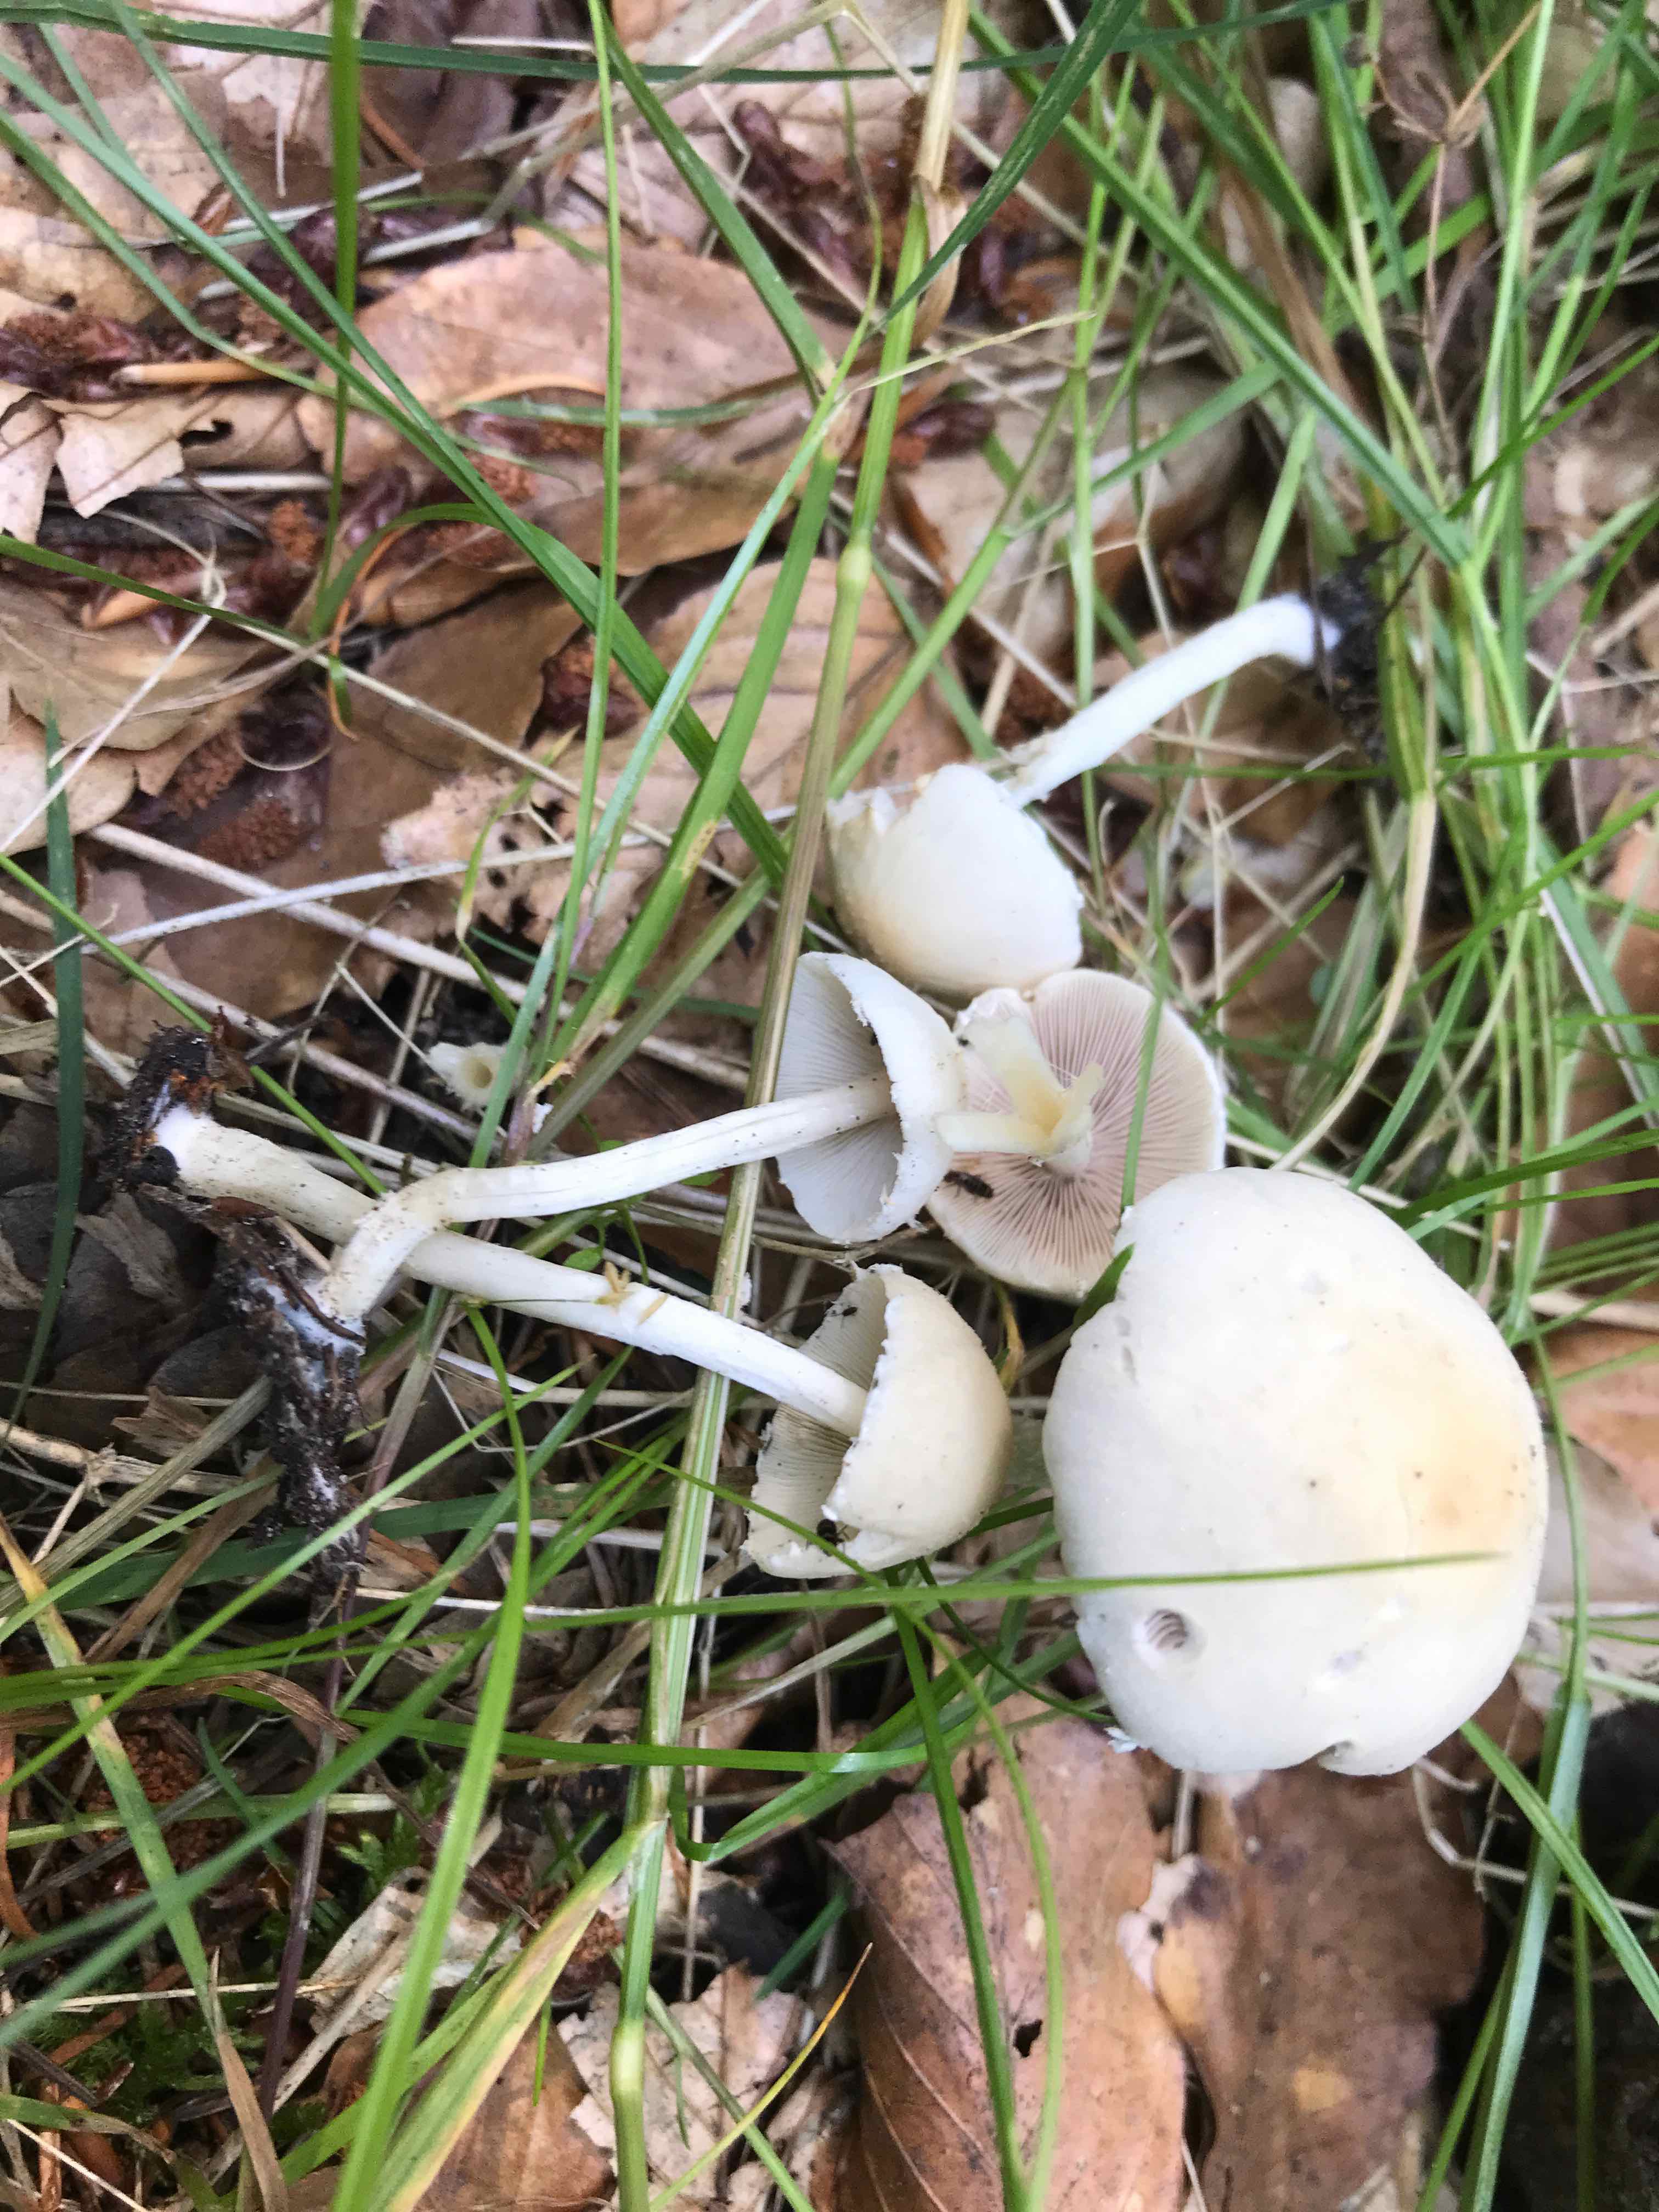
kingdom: Fungi
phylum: Basidiomycota
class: Agaricomycetes
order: Agaricales
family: Psathyrellaceae
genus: Candolleomyces
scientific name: Candolleomyces candolleanus
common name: Candolles mørkhat
